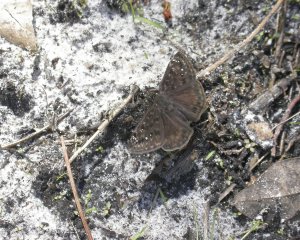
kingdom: Animalia
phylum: Arthropoda
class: Insecta
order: Lepidoptera
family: Hesperiidae
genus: Gesta
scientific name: Gesta
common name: Horace's Duskywing
